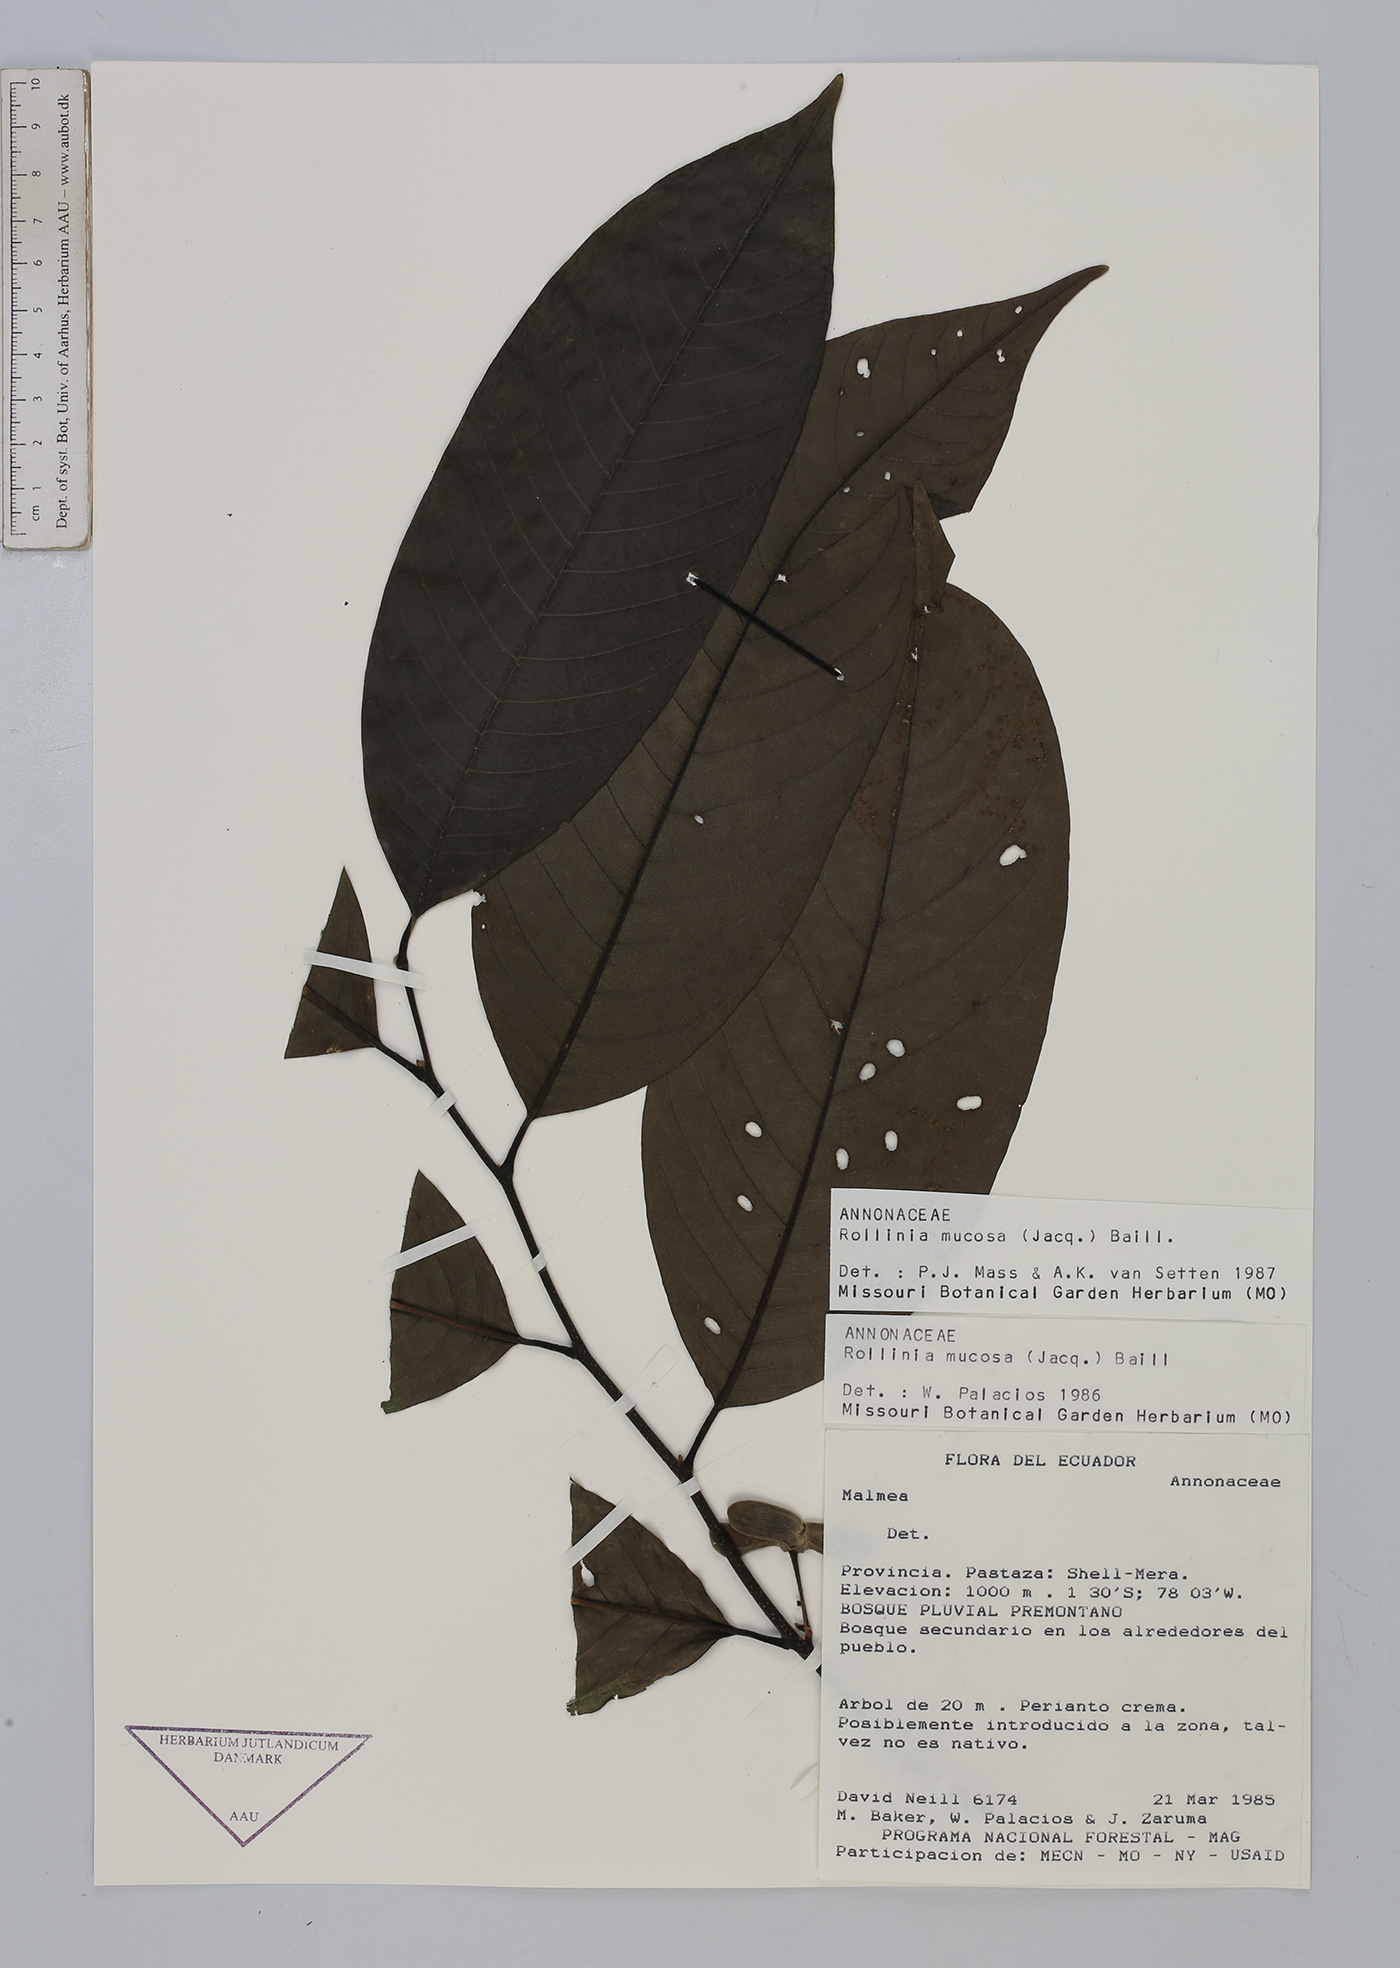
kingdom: Plantae
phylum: Tracheophyta
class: Magnoliopsida
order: Magnoliales
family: Annonaceae
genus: Annona
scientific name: Annona mucosa
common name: Sugar apple
